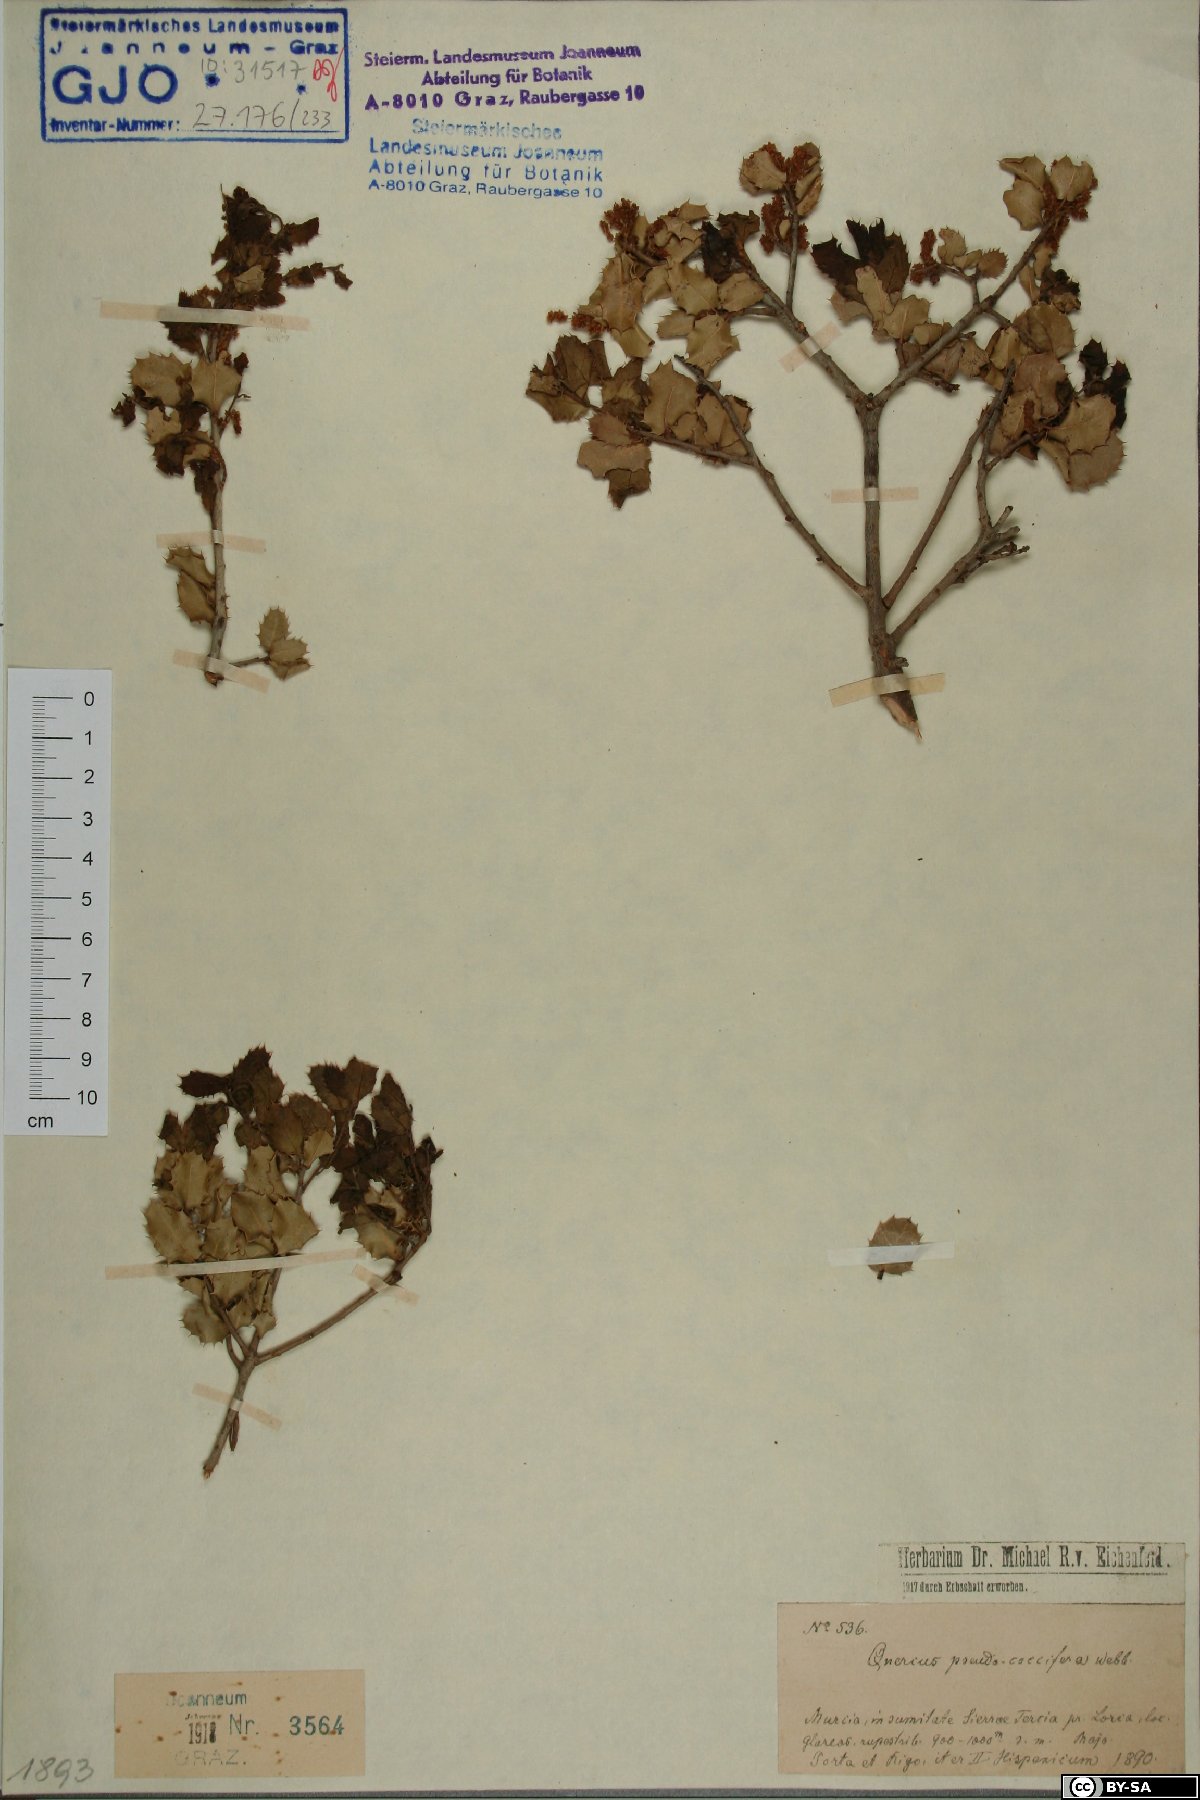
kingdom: Plantae
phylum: Tracheophyta
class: Magnoliopsida
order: Fagales
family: Fagaceae
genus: Quercus
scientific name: Quercus pseudococcifera
